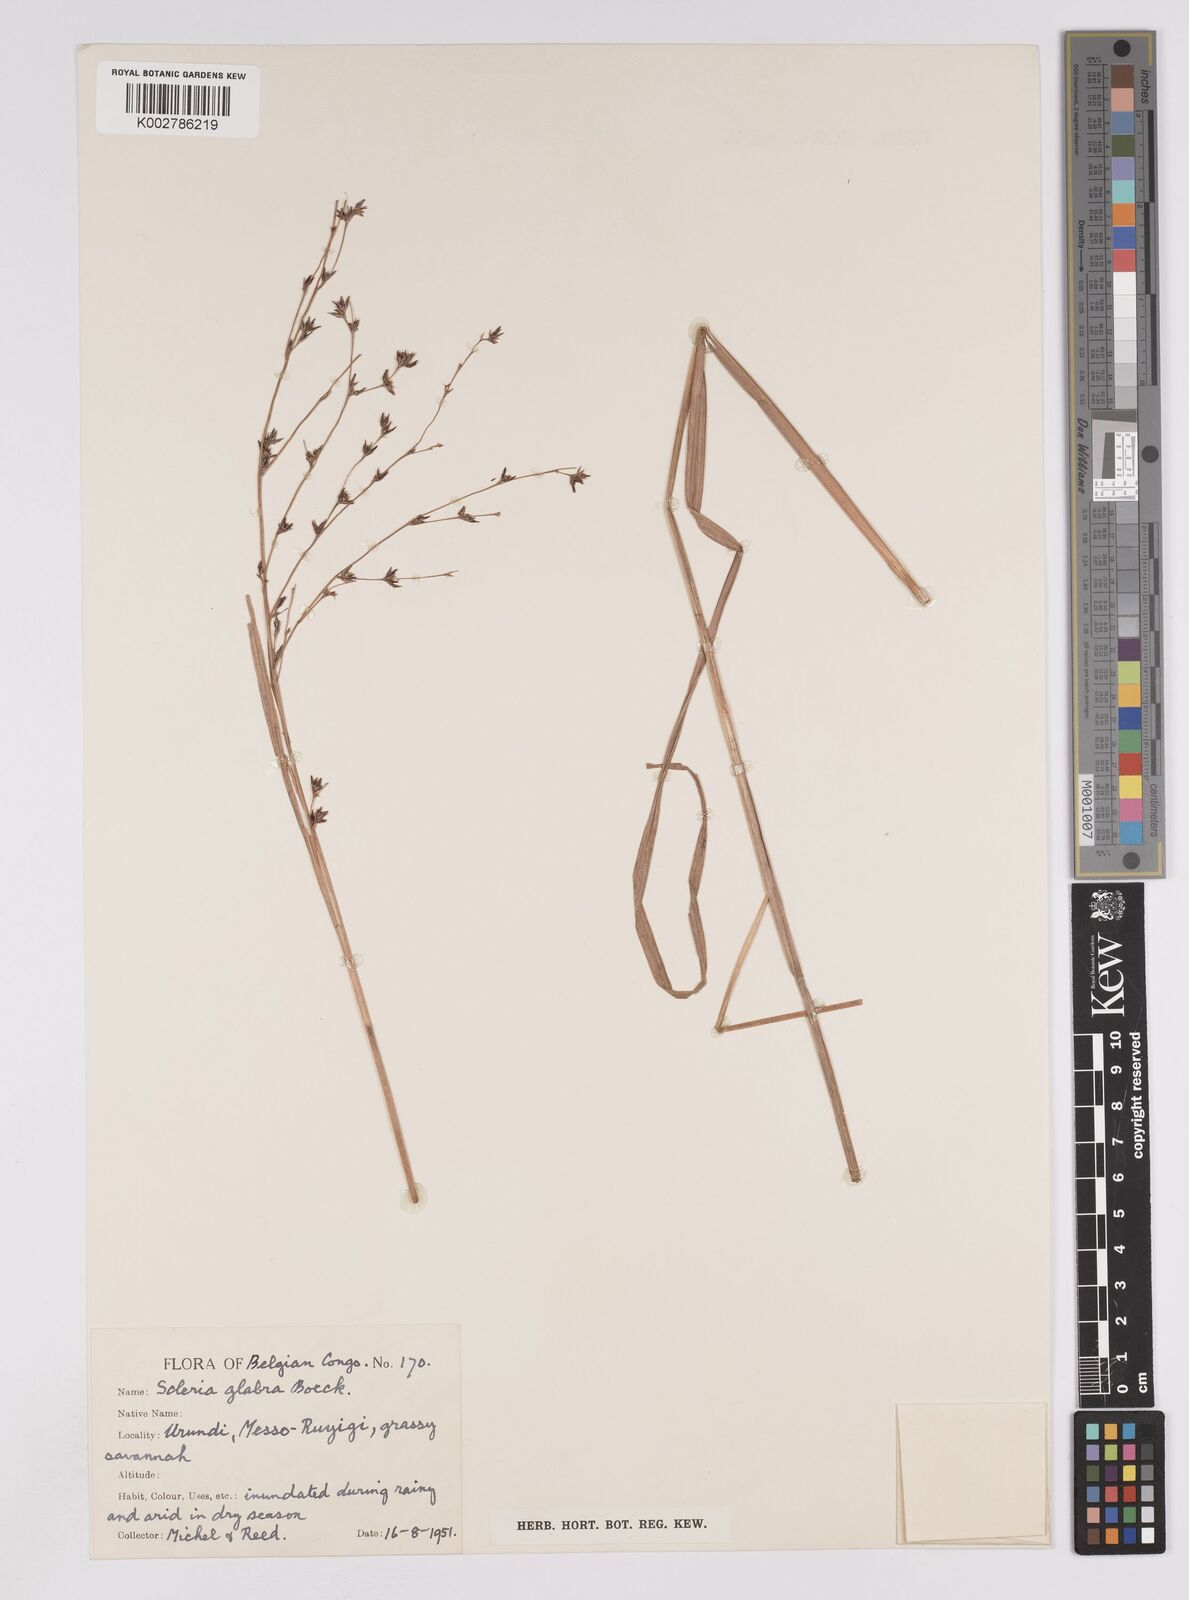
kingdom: Plantae
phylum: Tracheophyta
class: Liliopsida
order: Poales
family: Cyperaceae
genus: Scleria
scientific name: Scleria glabra
